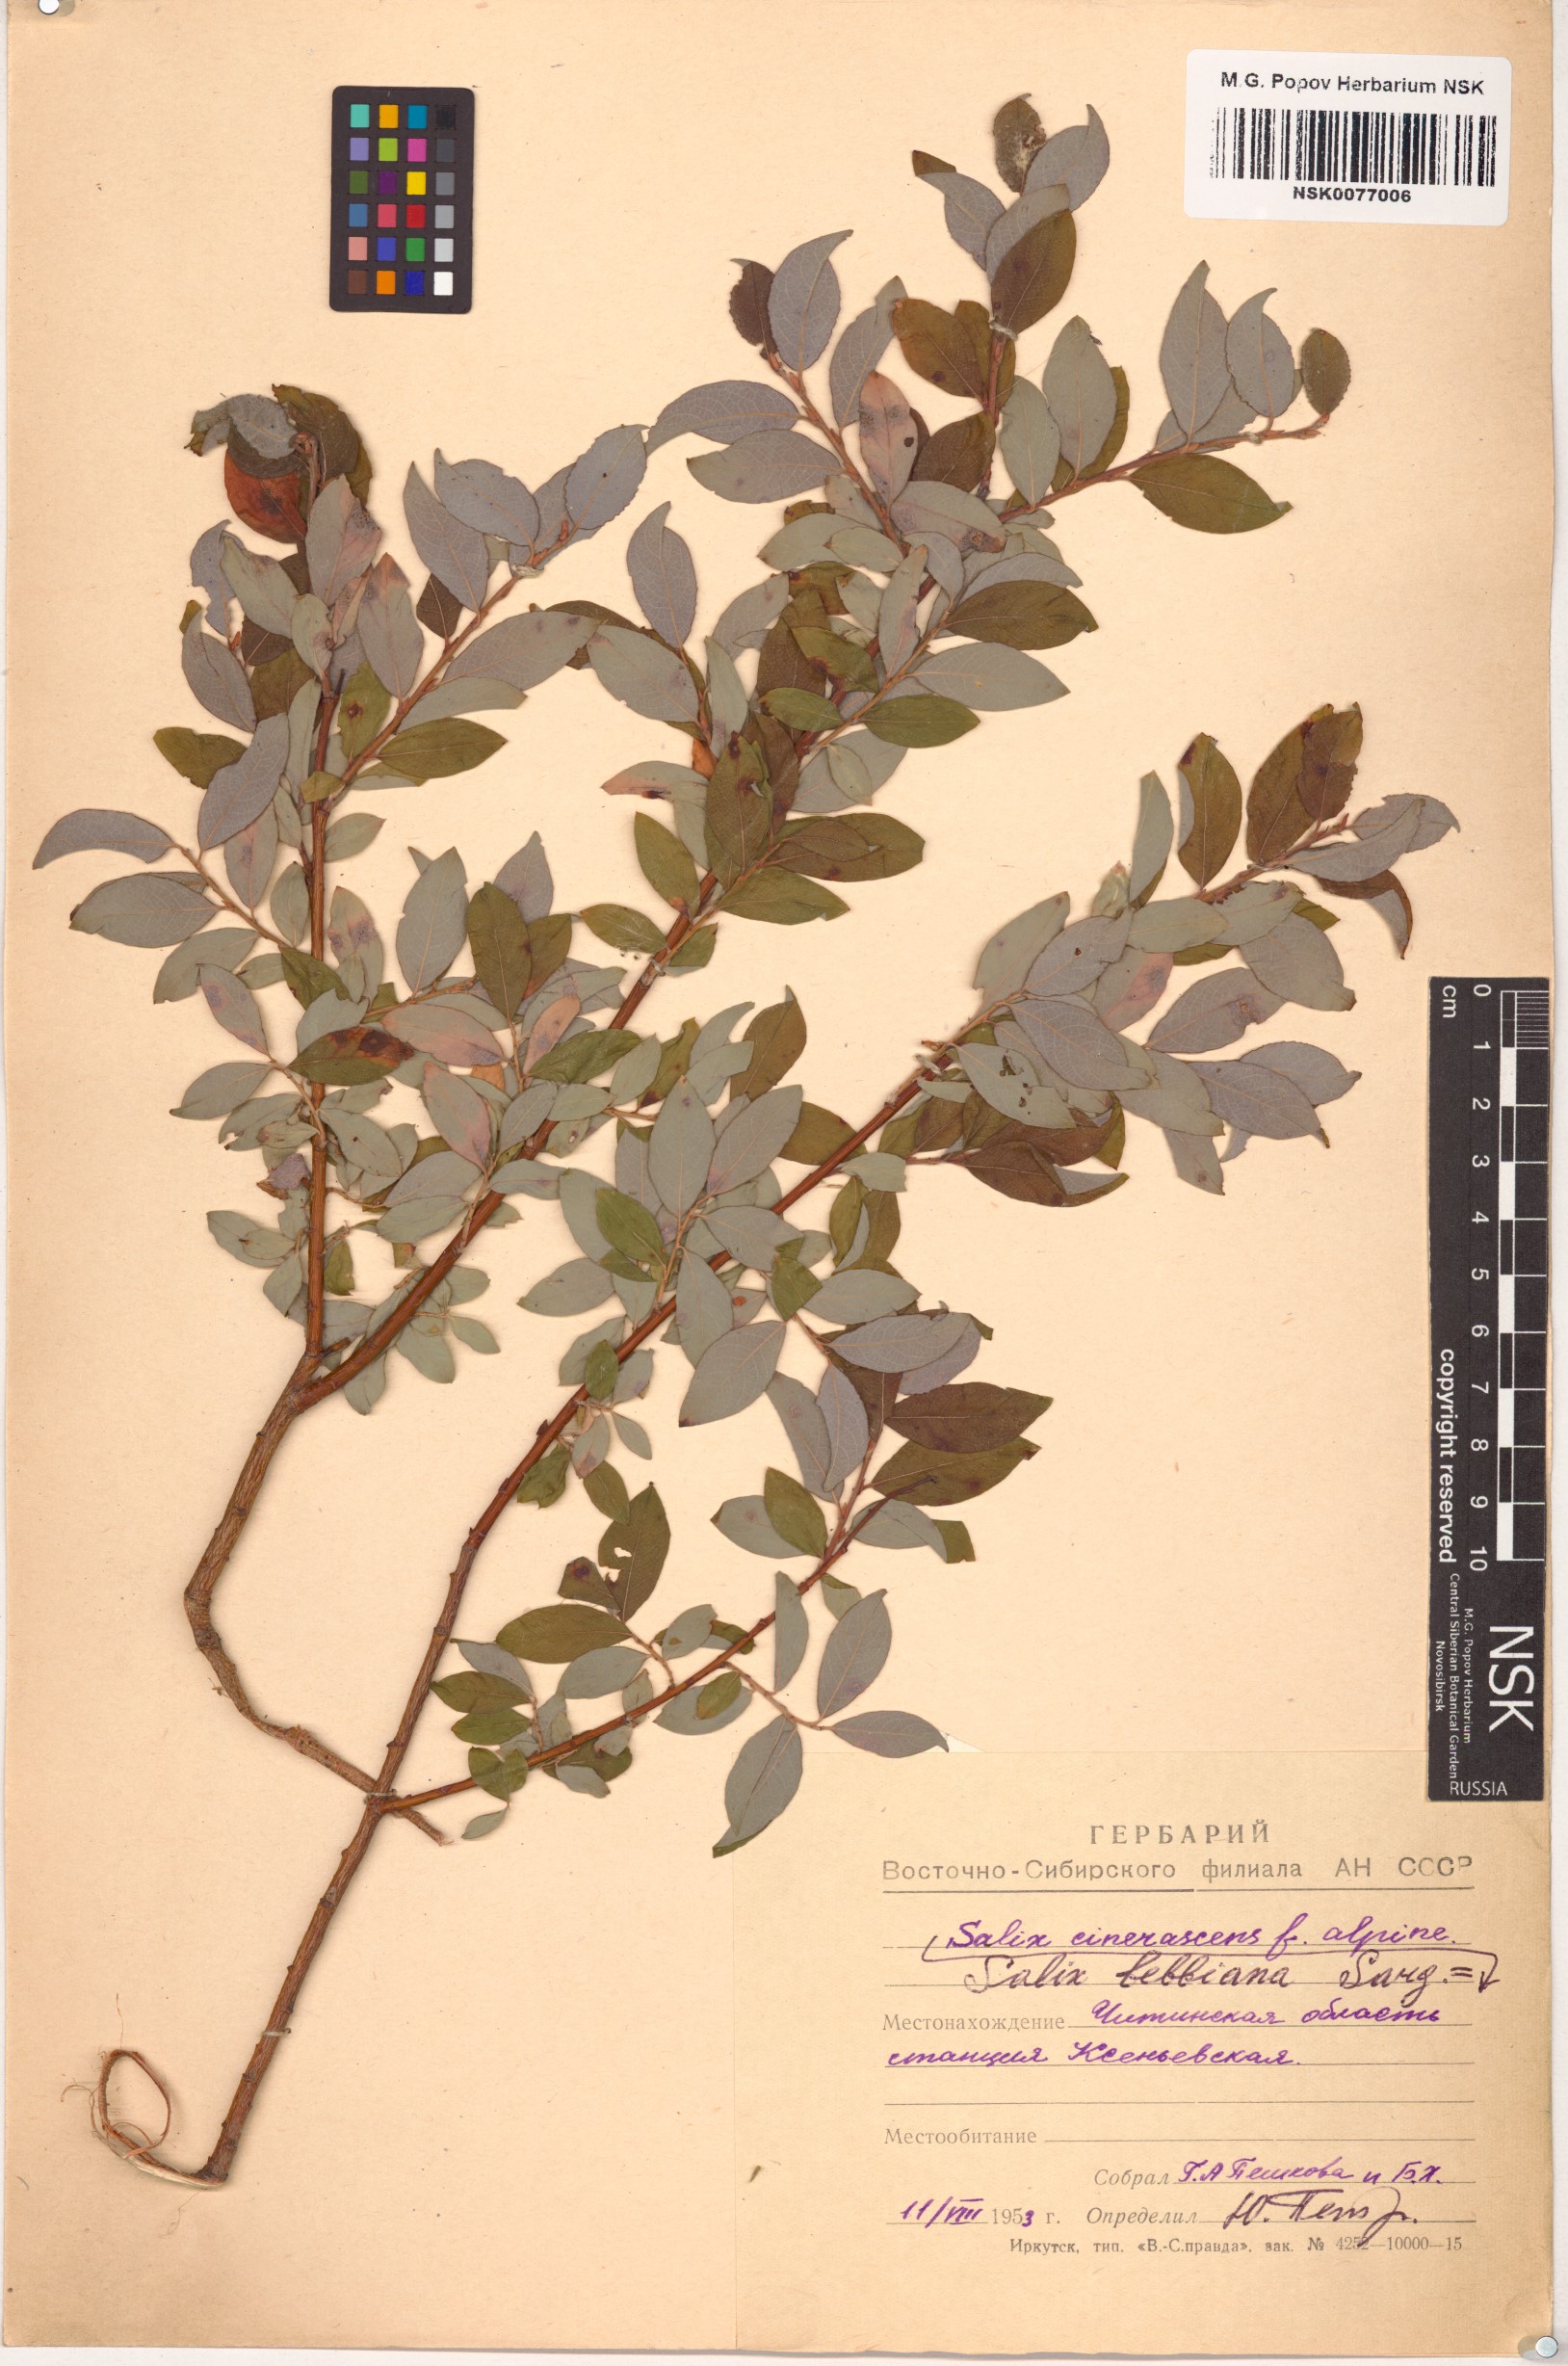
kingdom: Plantae
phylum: Tracheophyta
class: Magnoliopsida
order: Malpighiales
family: Salicaceae
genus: Salix
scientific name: Salix bebbiana
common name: Bebb's willow
